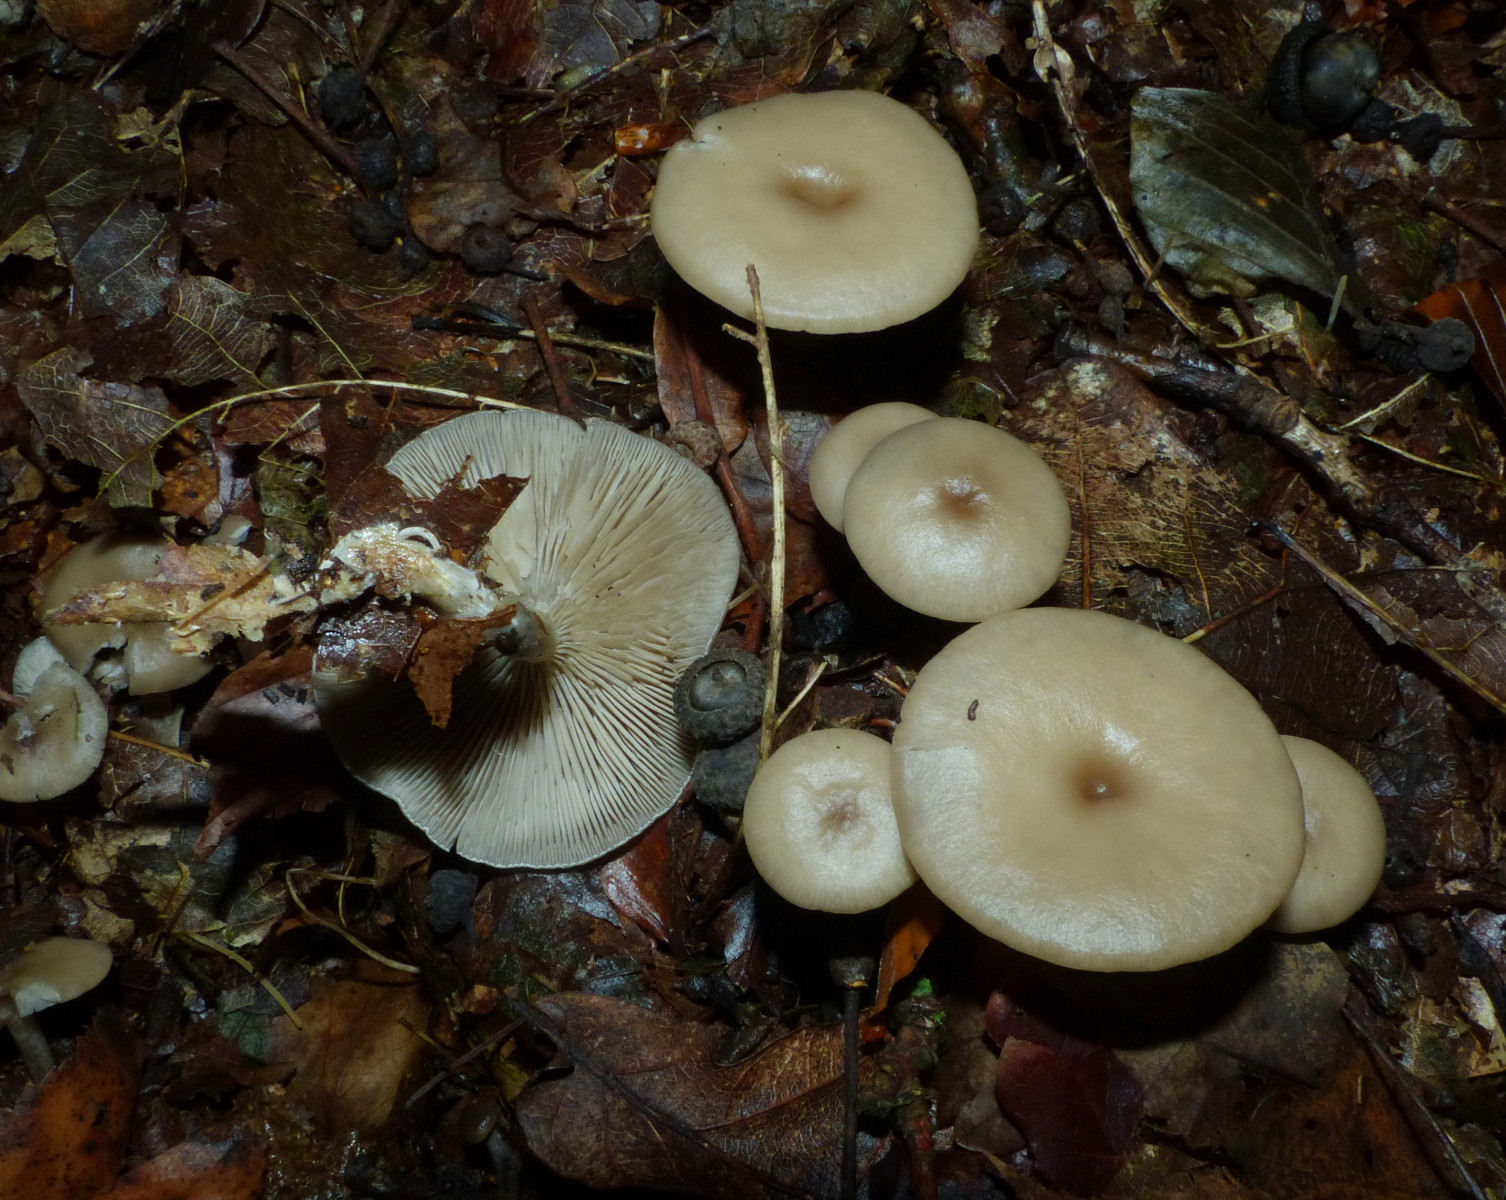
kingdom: Fungi
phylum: Basidiomycota
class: Agaricomycetes
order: Agaricales
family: Tricholomataceae
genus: Clitocybe
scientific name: Clitocybe
